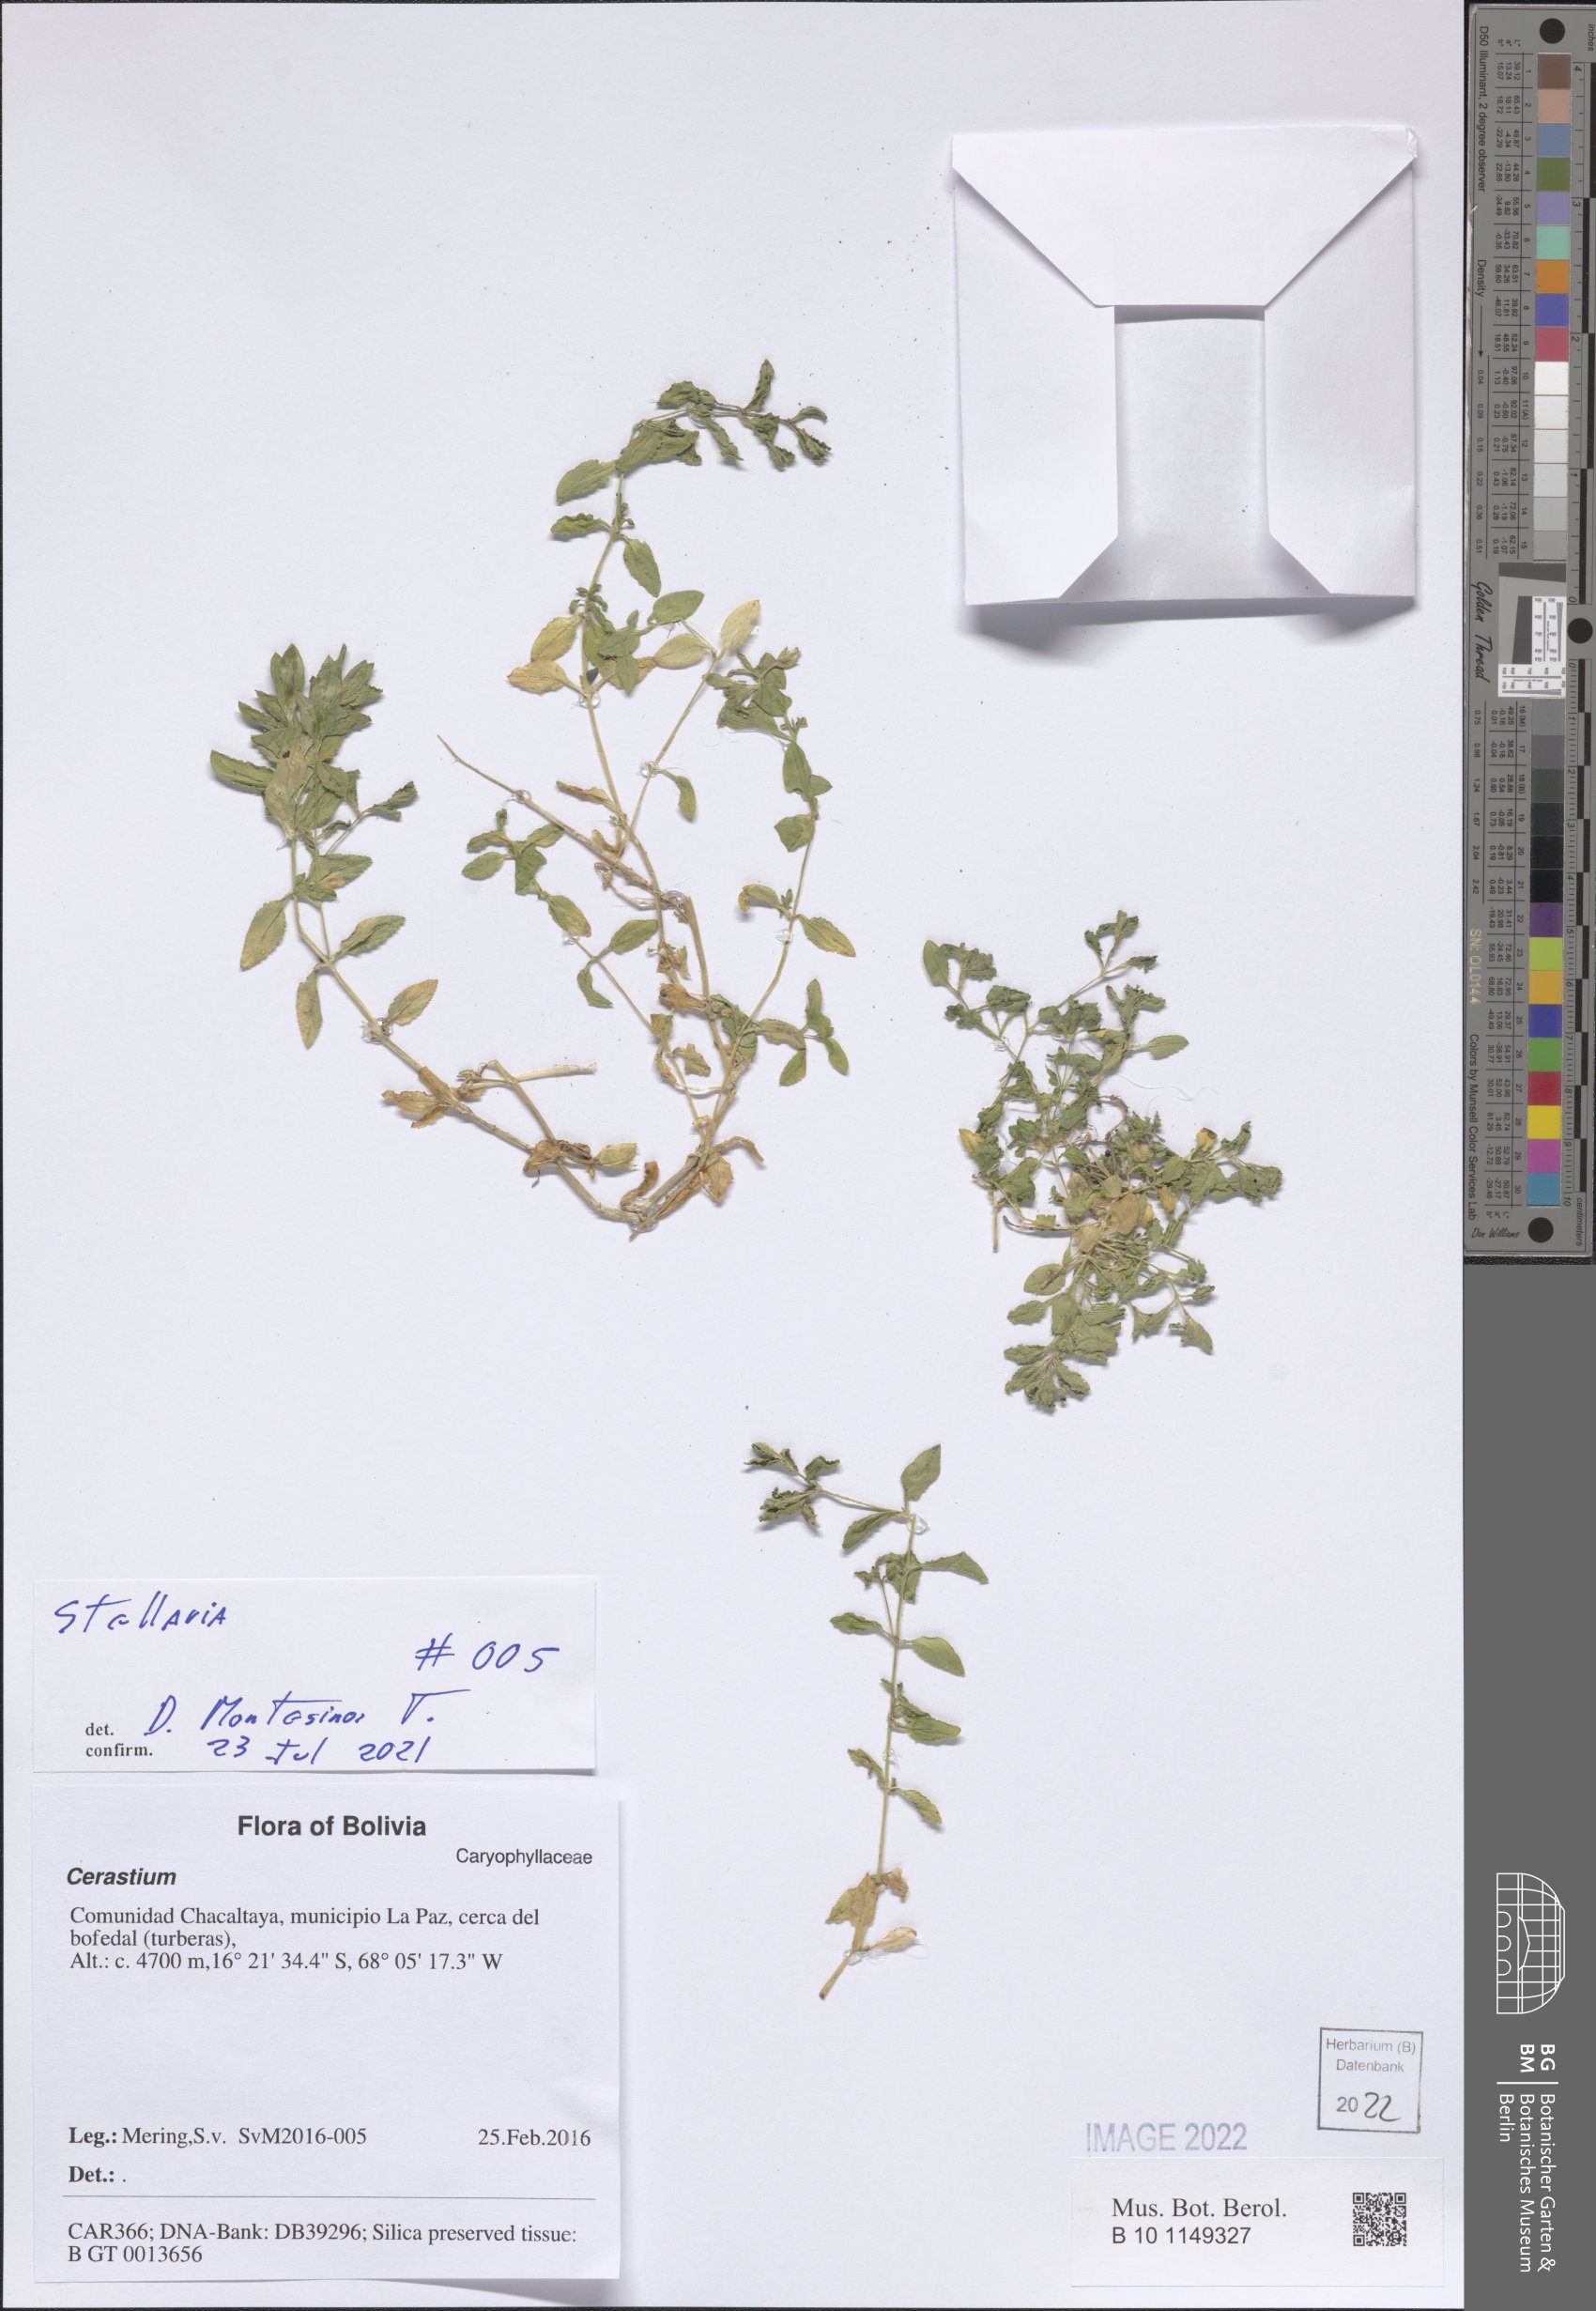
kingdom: Plantae
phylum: Tracheophyta
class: Magnoliopsida
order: Caryophyllales
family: Caryophyllaceae
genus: Stellaria
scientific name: Stellaria
